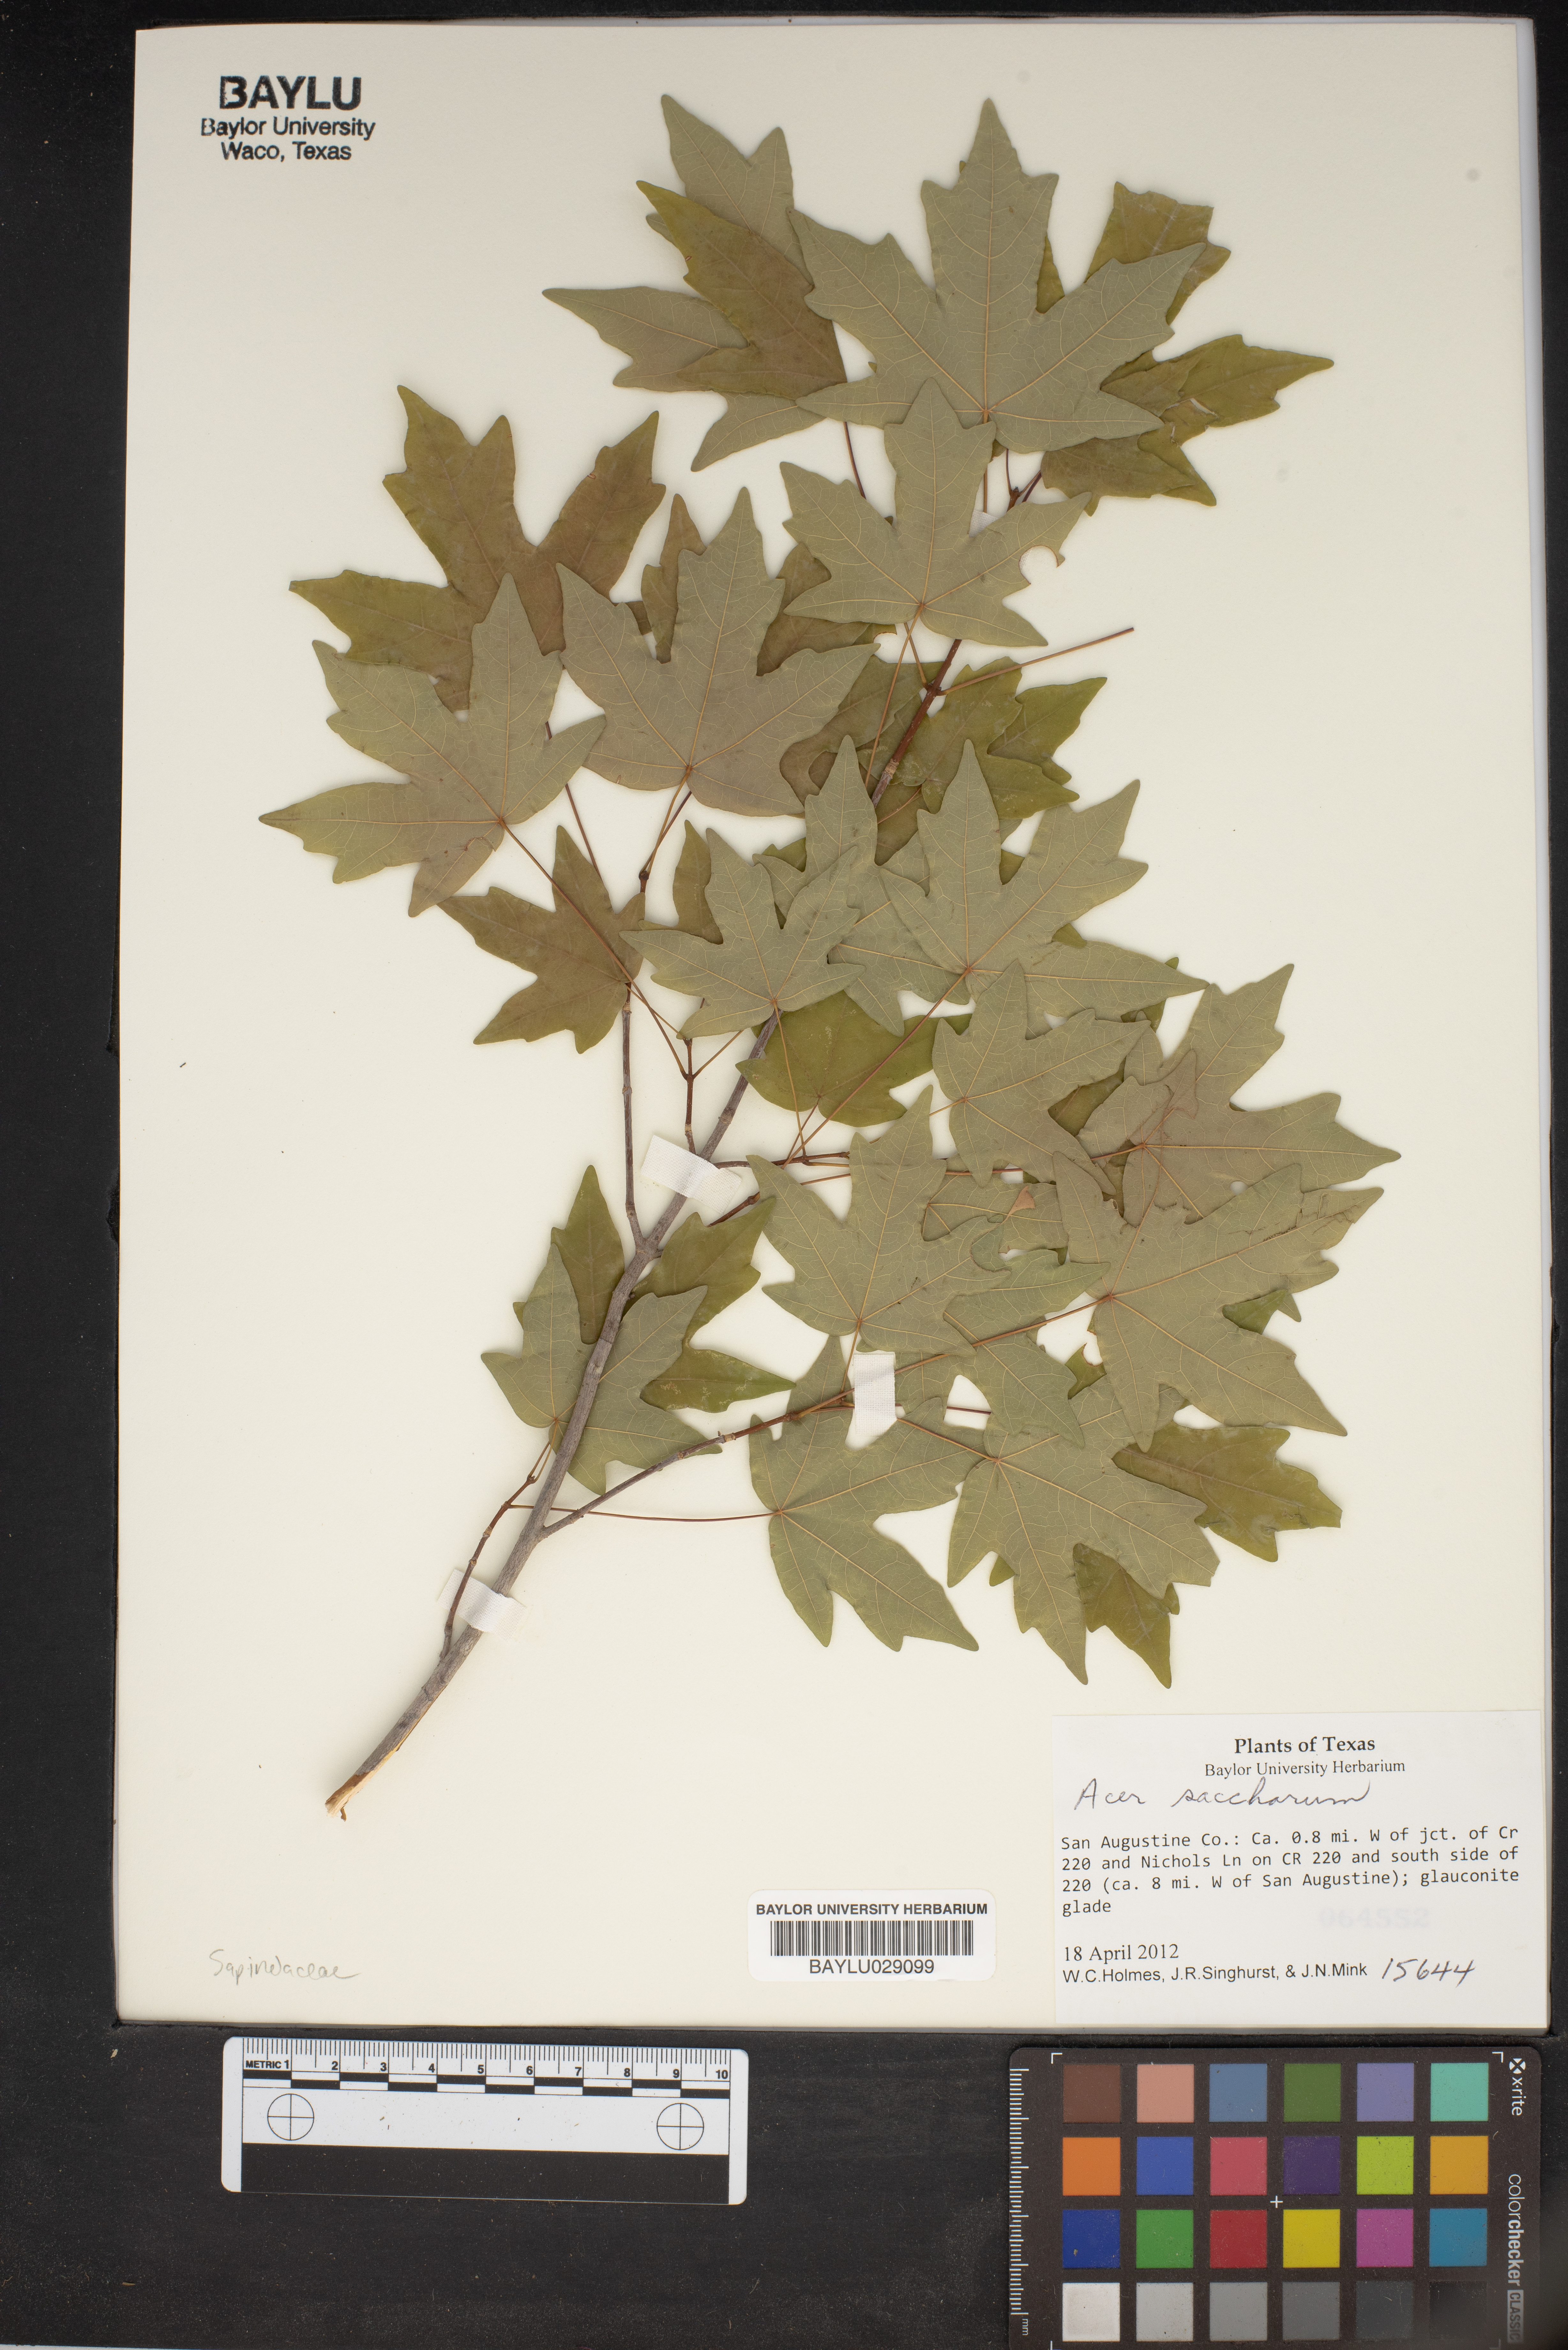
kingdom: Plantae
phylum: Tracheophyta
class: Magnoliopsida
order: Sapindales
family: Sapindaceae
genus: Acer
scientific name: Acer saccharum
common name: Sugar maple
